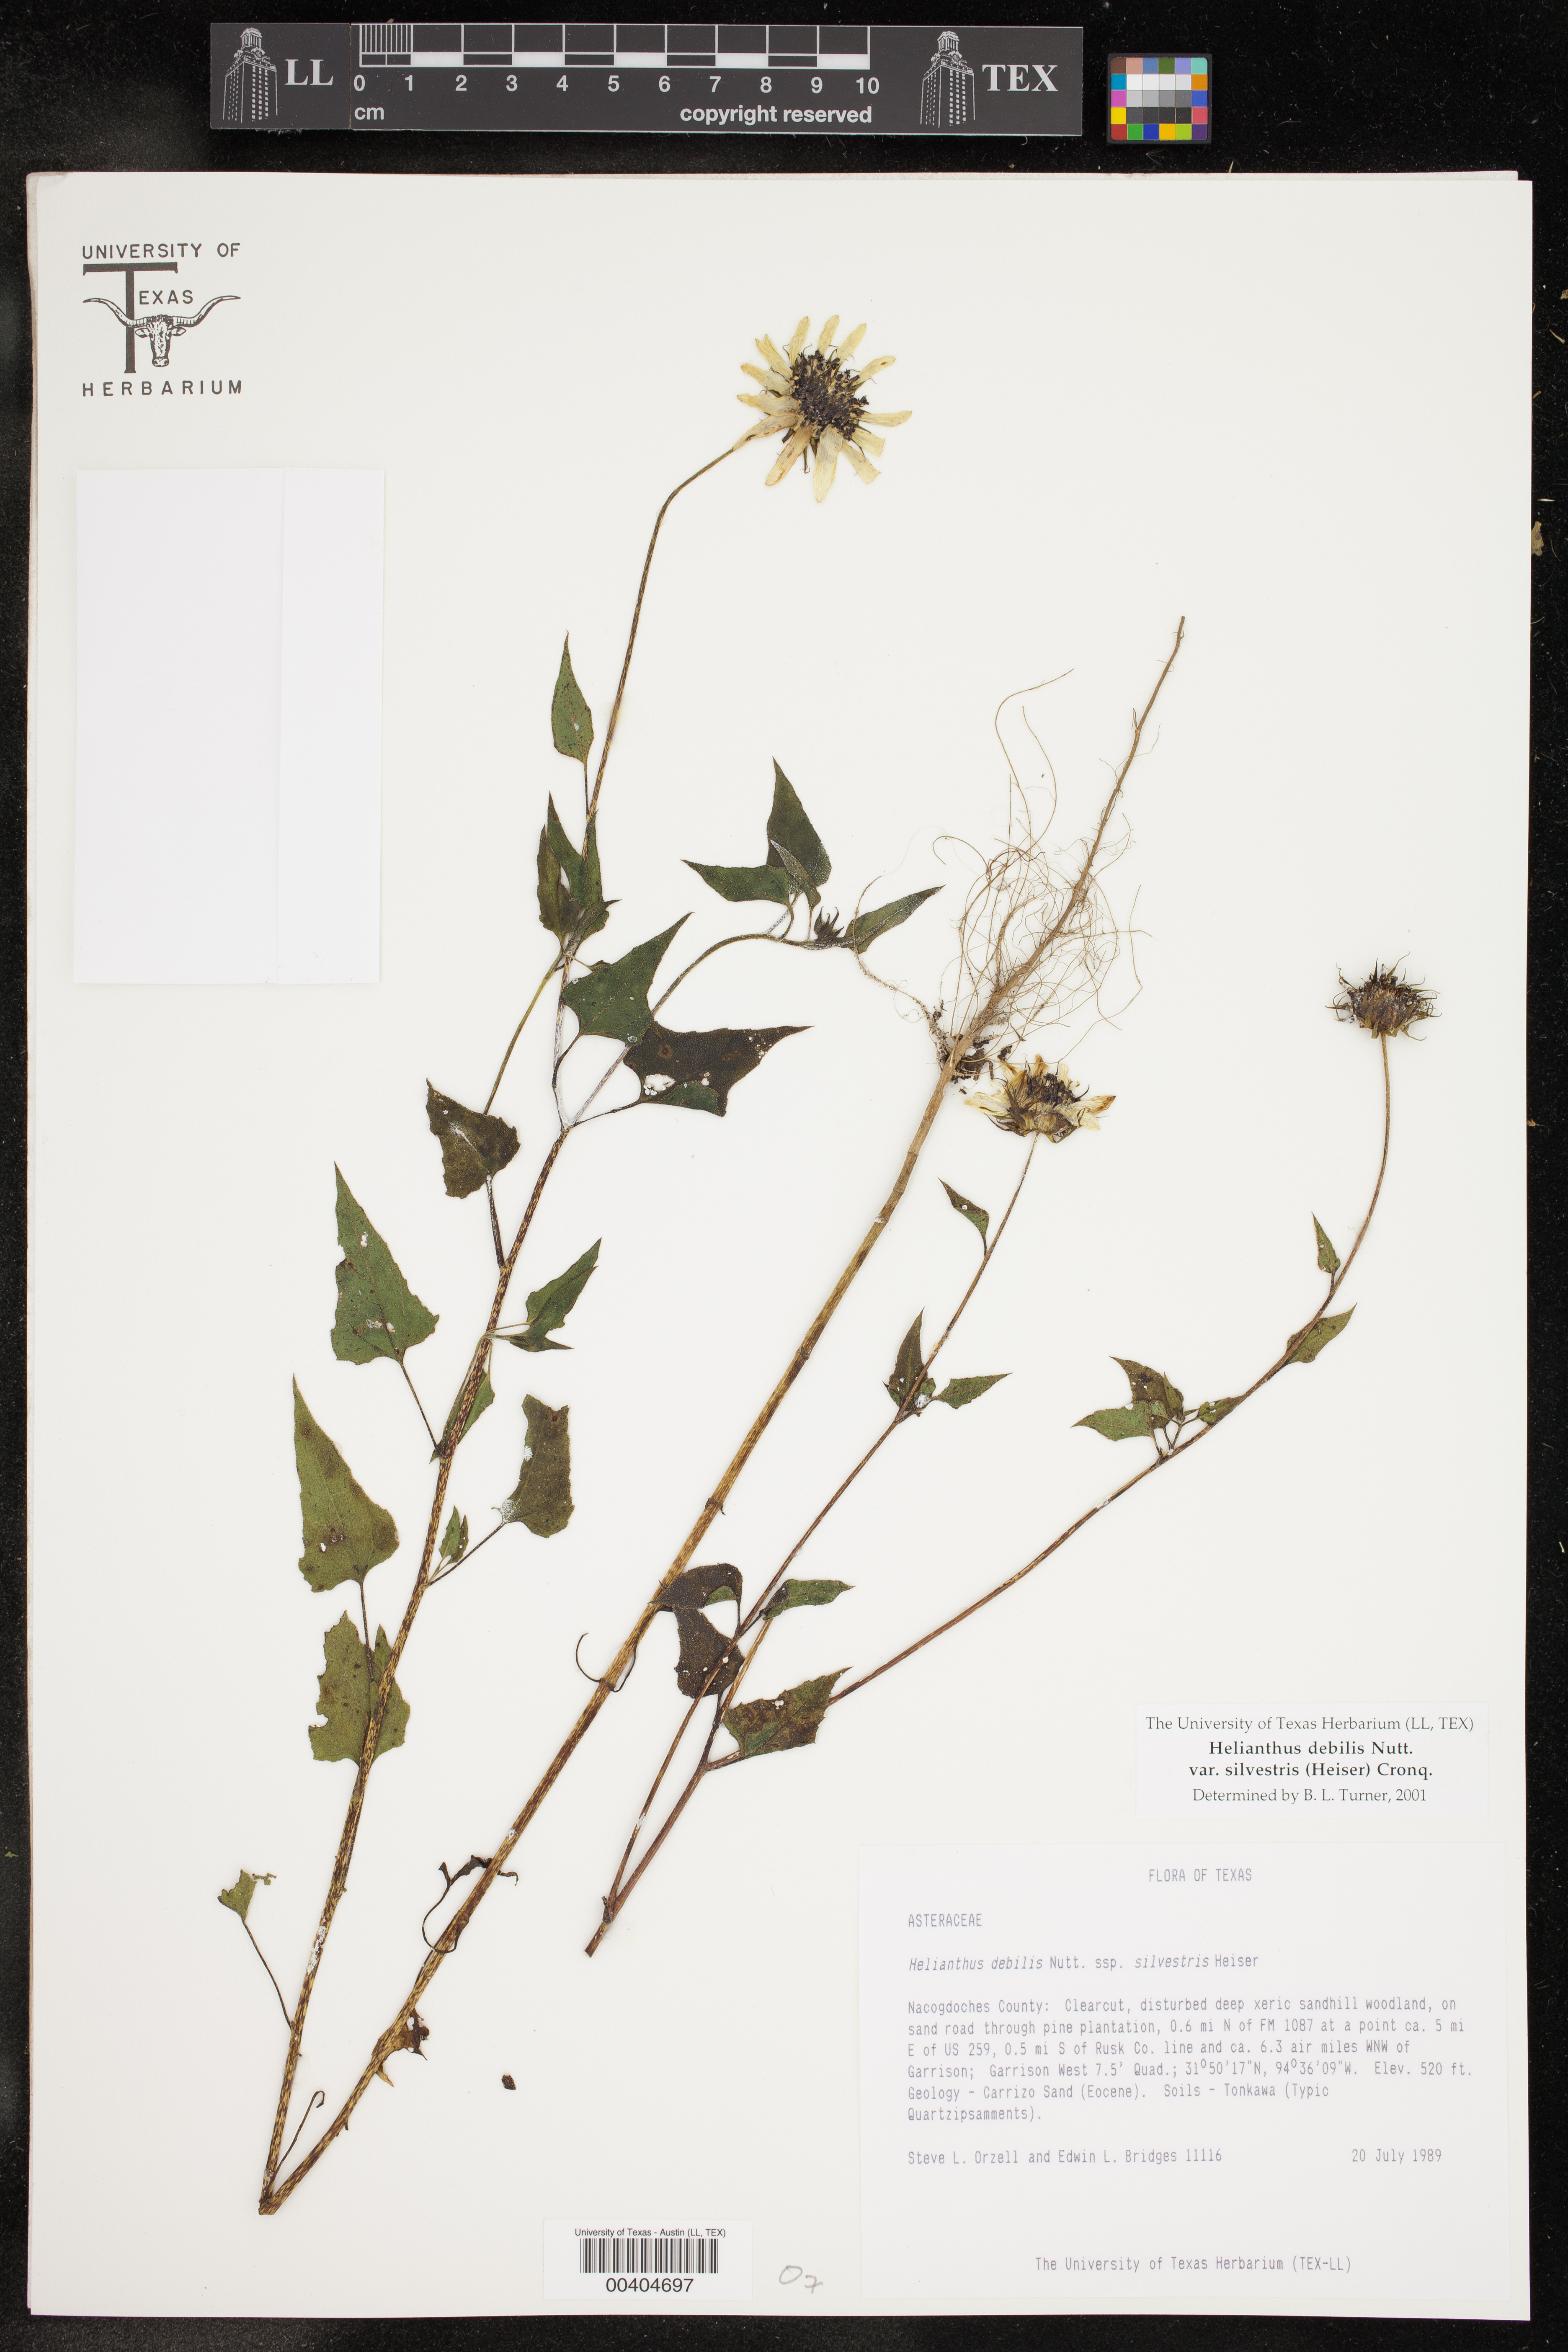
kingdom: Plantae
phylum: Tracheophyta
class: Magnoliopsida
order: Asterales
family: Asteraceae
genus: Helianthus
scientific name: Helianthus debilis
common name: Weak sunflower
